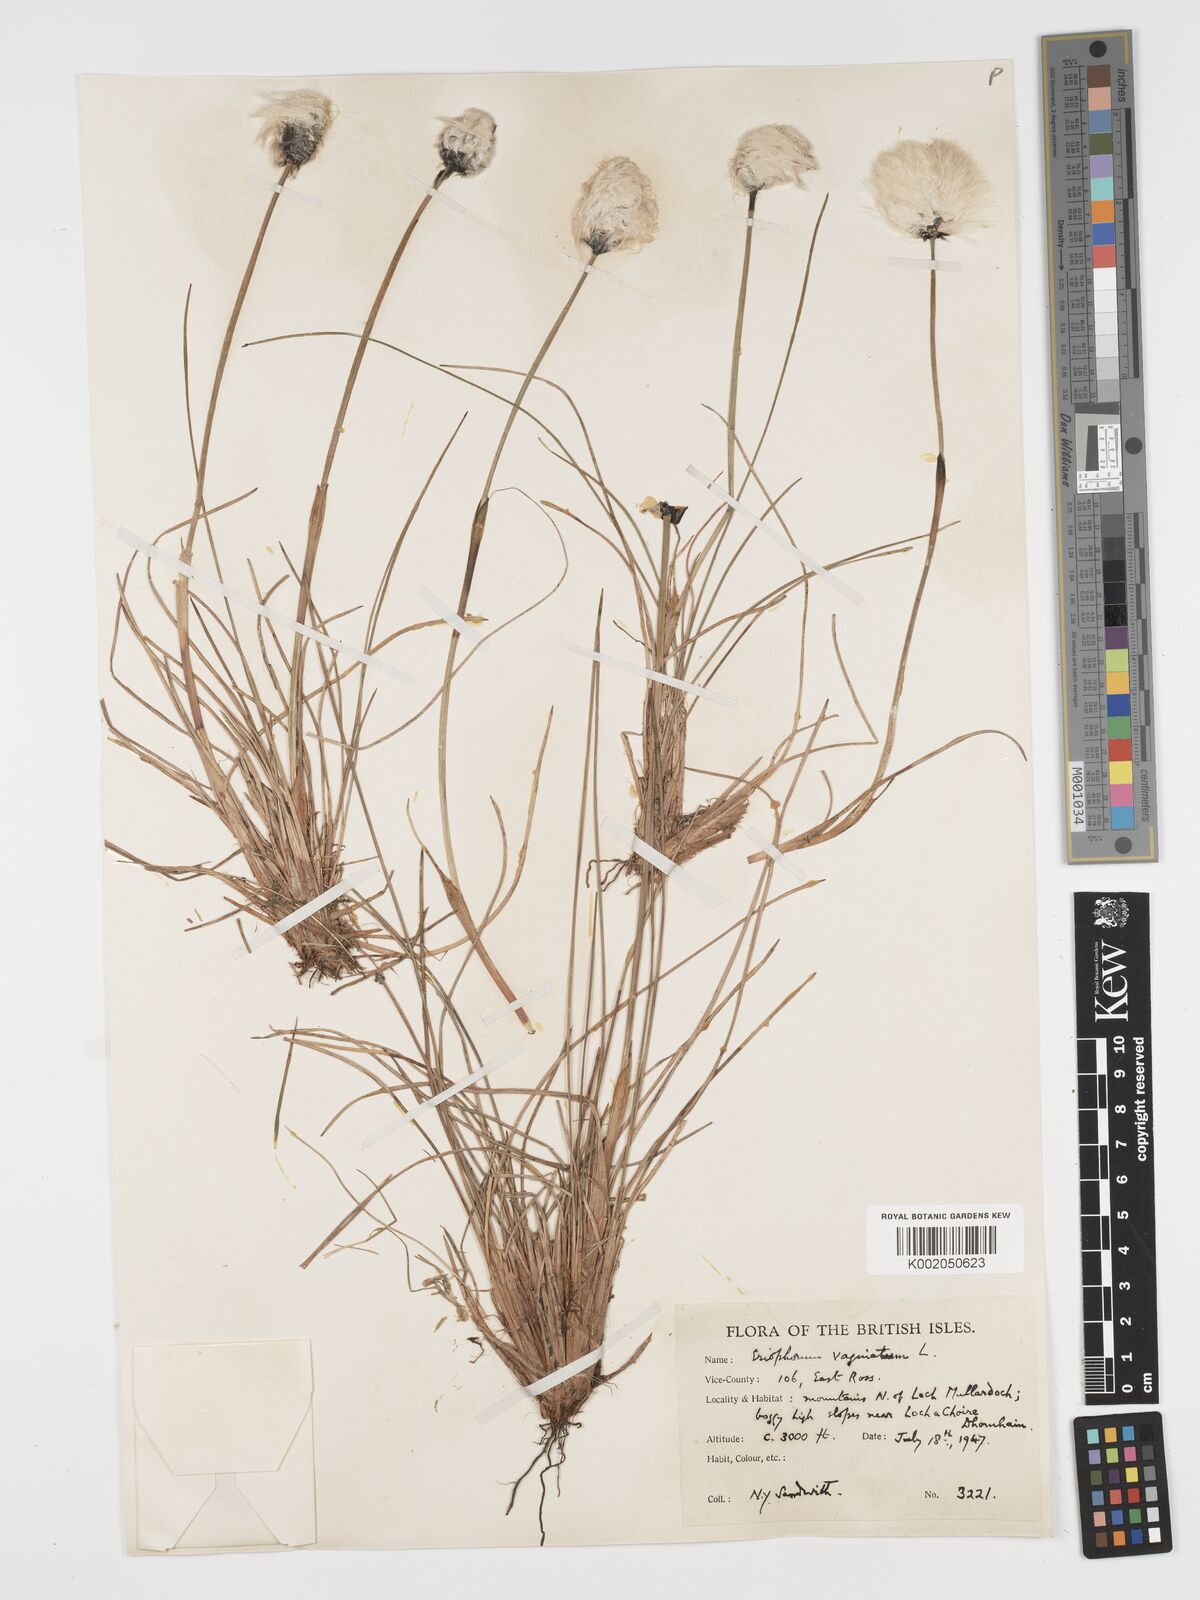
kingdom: Plantae
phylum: Tracheophyta
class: Liliopsida
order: Poales
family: Cyperaceae
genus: Eriophorum
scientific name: Eriophorum vaginatum
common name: Hare's-tail cottongrass
